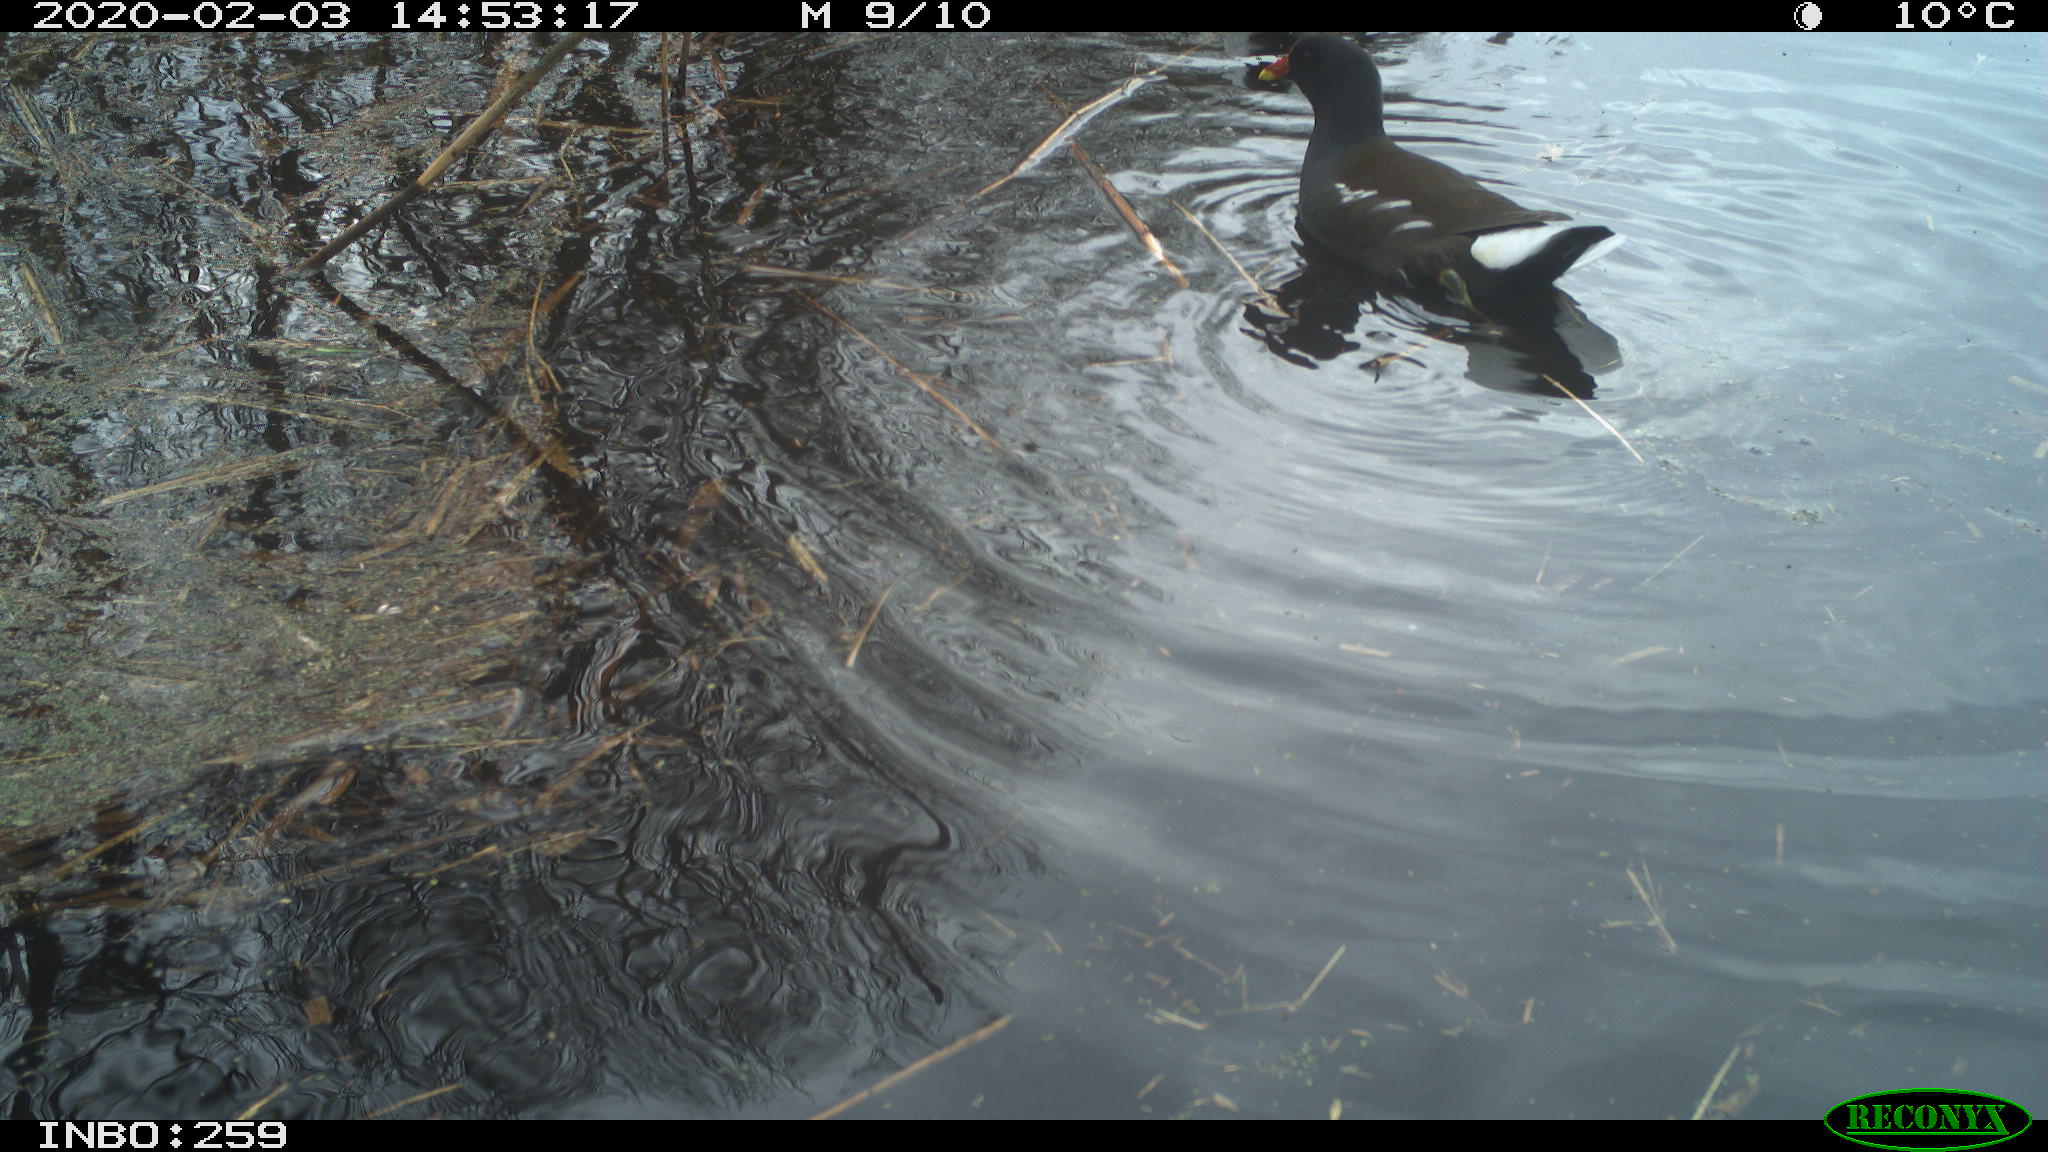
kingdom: Animalia
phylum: Chordata
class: Aves
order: Gruiformes
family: Rallidae
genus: Gallinula
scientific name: Gallinula chloropus
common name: Common moorhen
